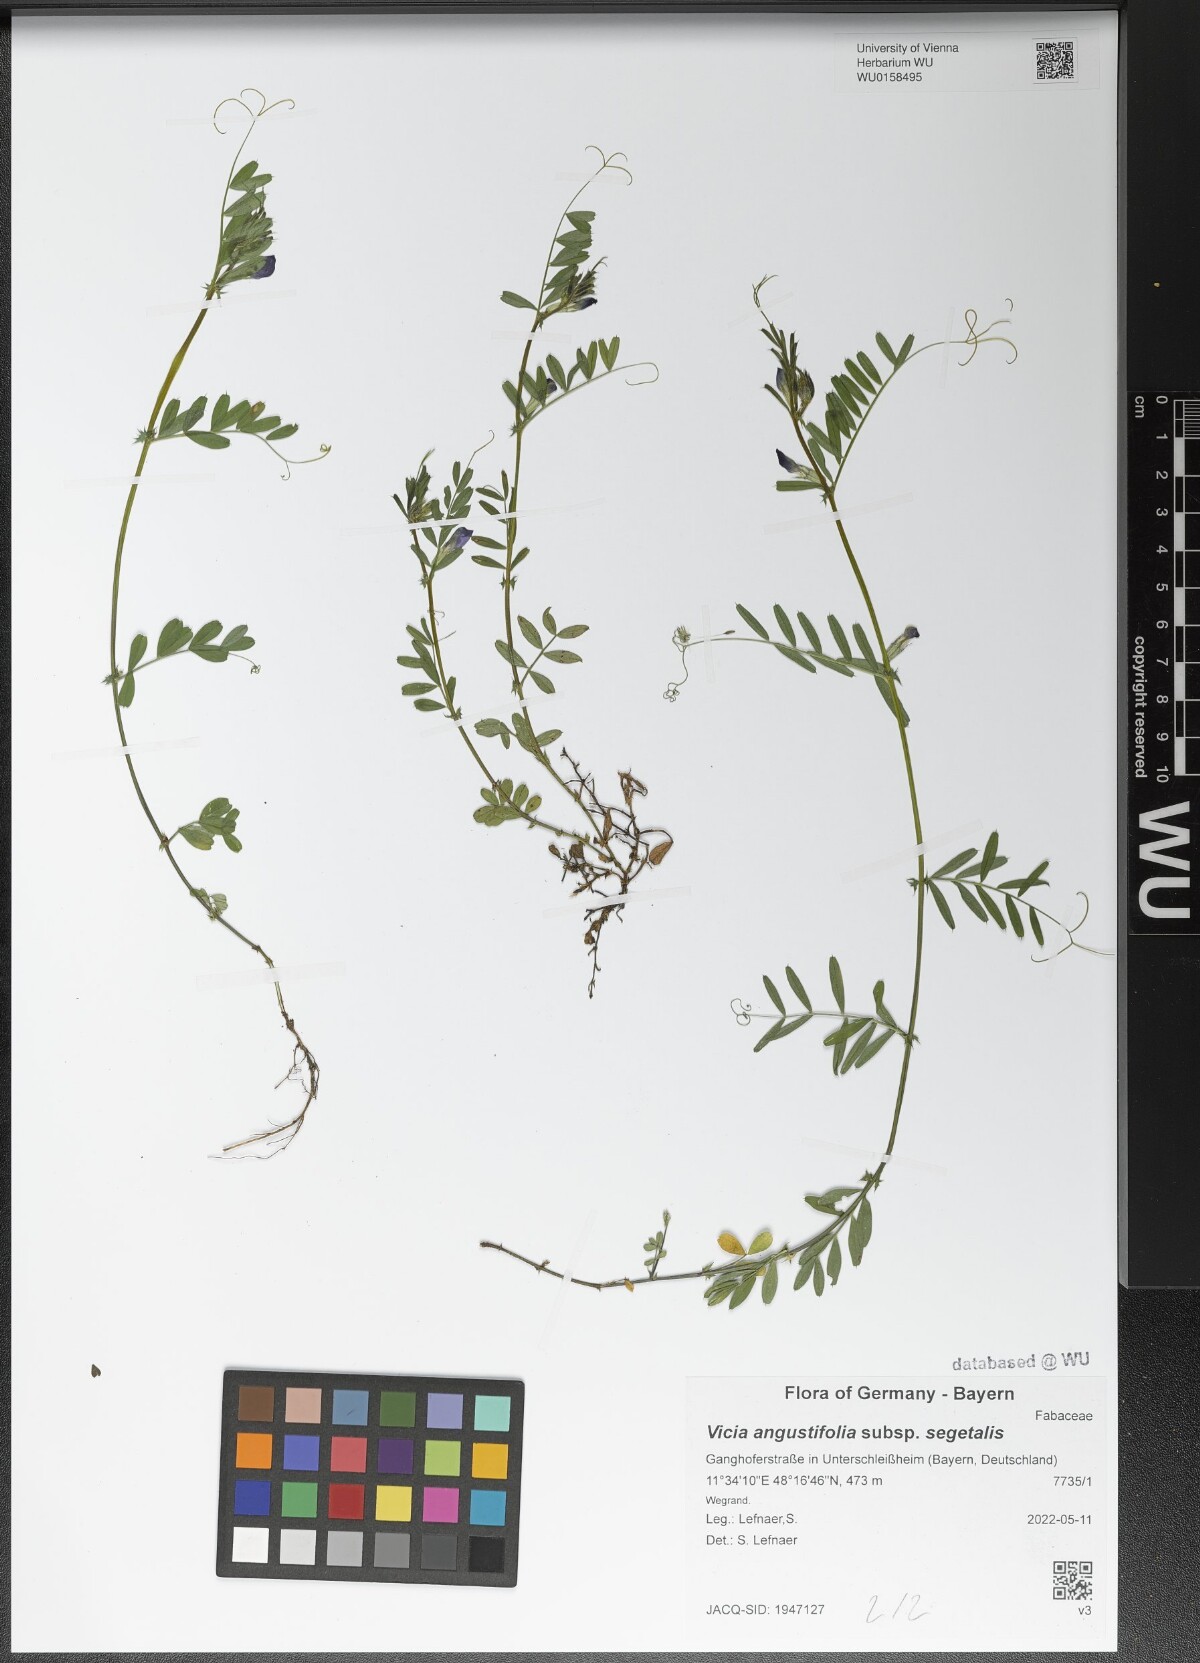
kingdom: Plantae
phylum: Tracheophyta
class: Magnoliopsida
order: Fabales
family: Fabaceae
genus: Vicia
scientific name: Vicia sativa
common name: Garden vetch
